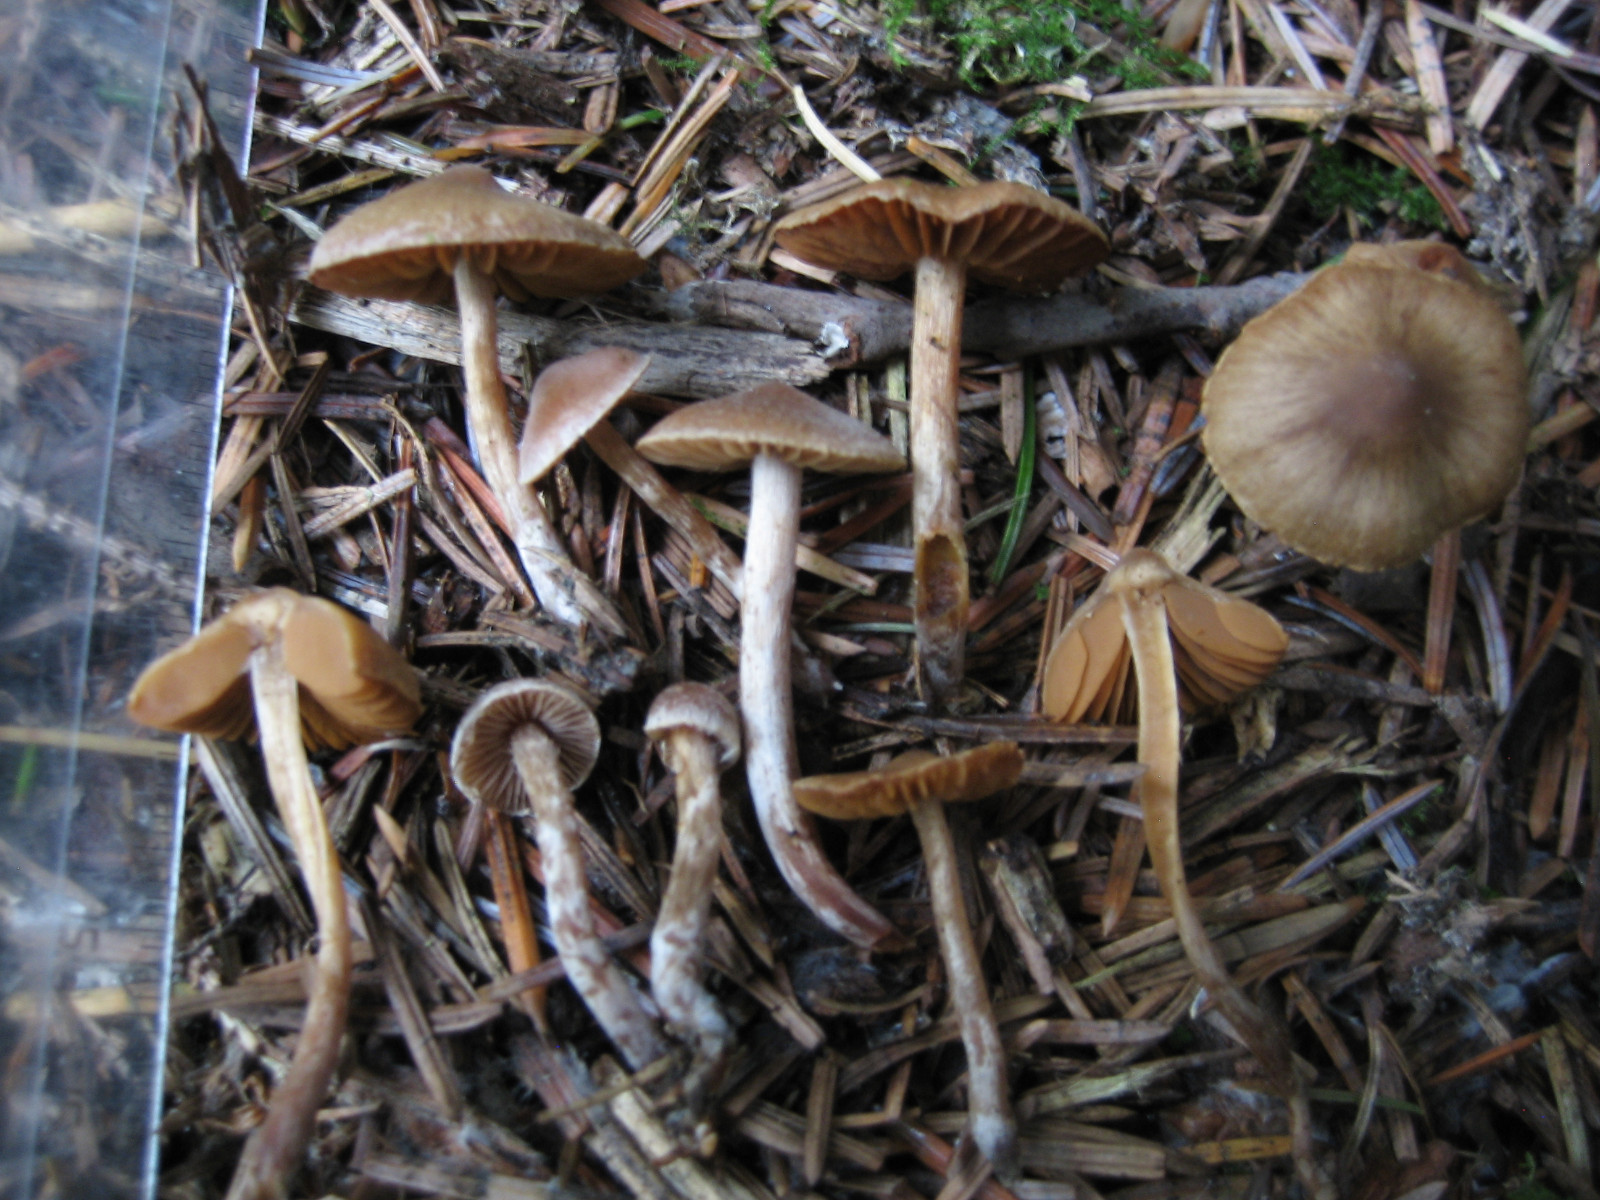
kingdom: Fungi
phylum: Basidiomycota
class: Agaricomycetes
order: Agaricales
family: Cortinariaceae
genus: Cortinarius
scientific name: Cortinarius pilatii
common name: Piláts slørhat
